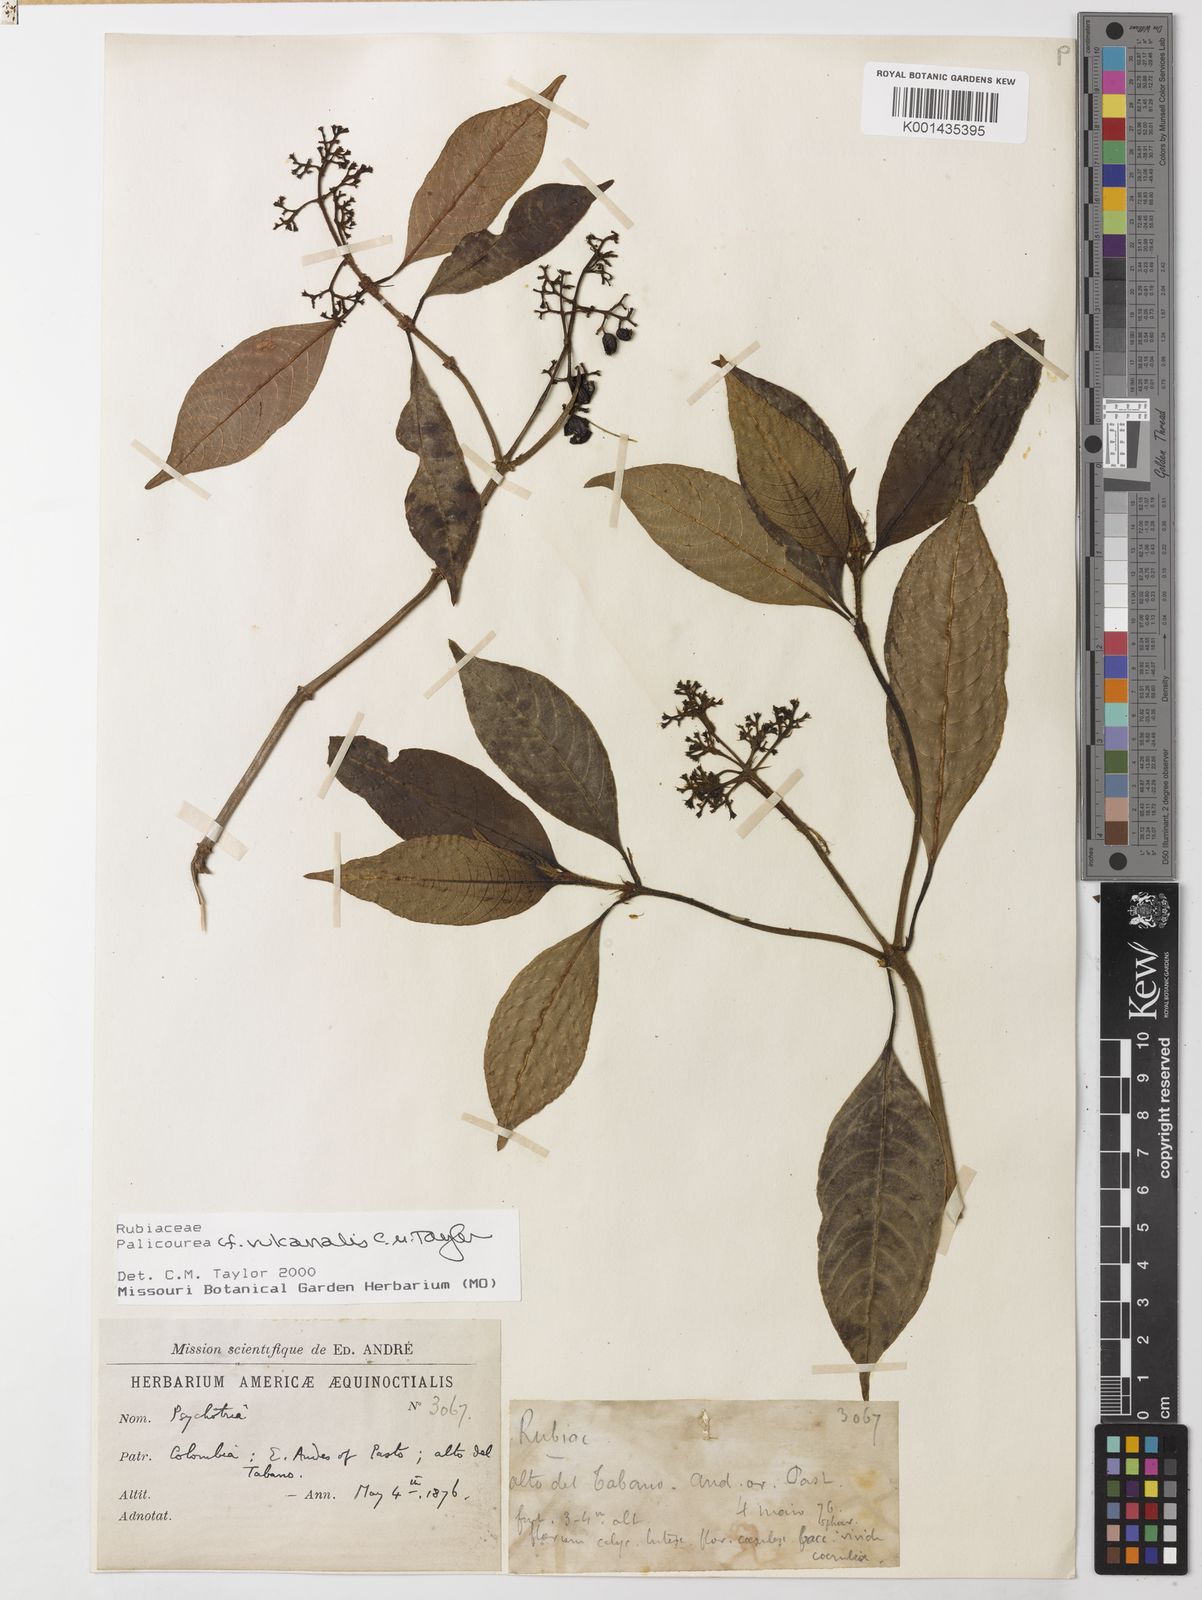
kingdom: Plantae
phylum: Tracheophyta
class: Magnoliopsida
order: Gentianales
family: Rubiaceae
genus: Palicourea
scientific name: Palicourea vulcanalis
